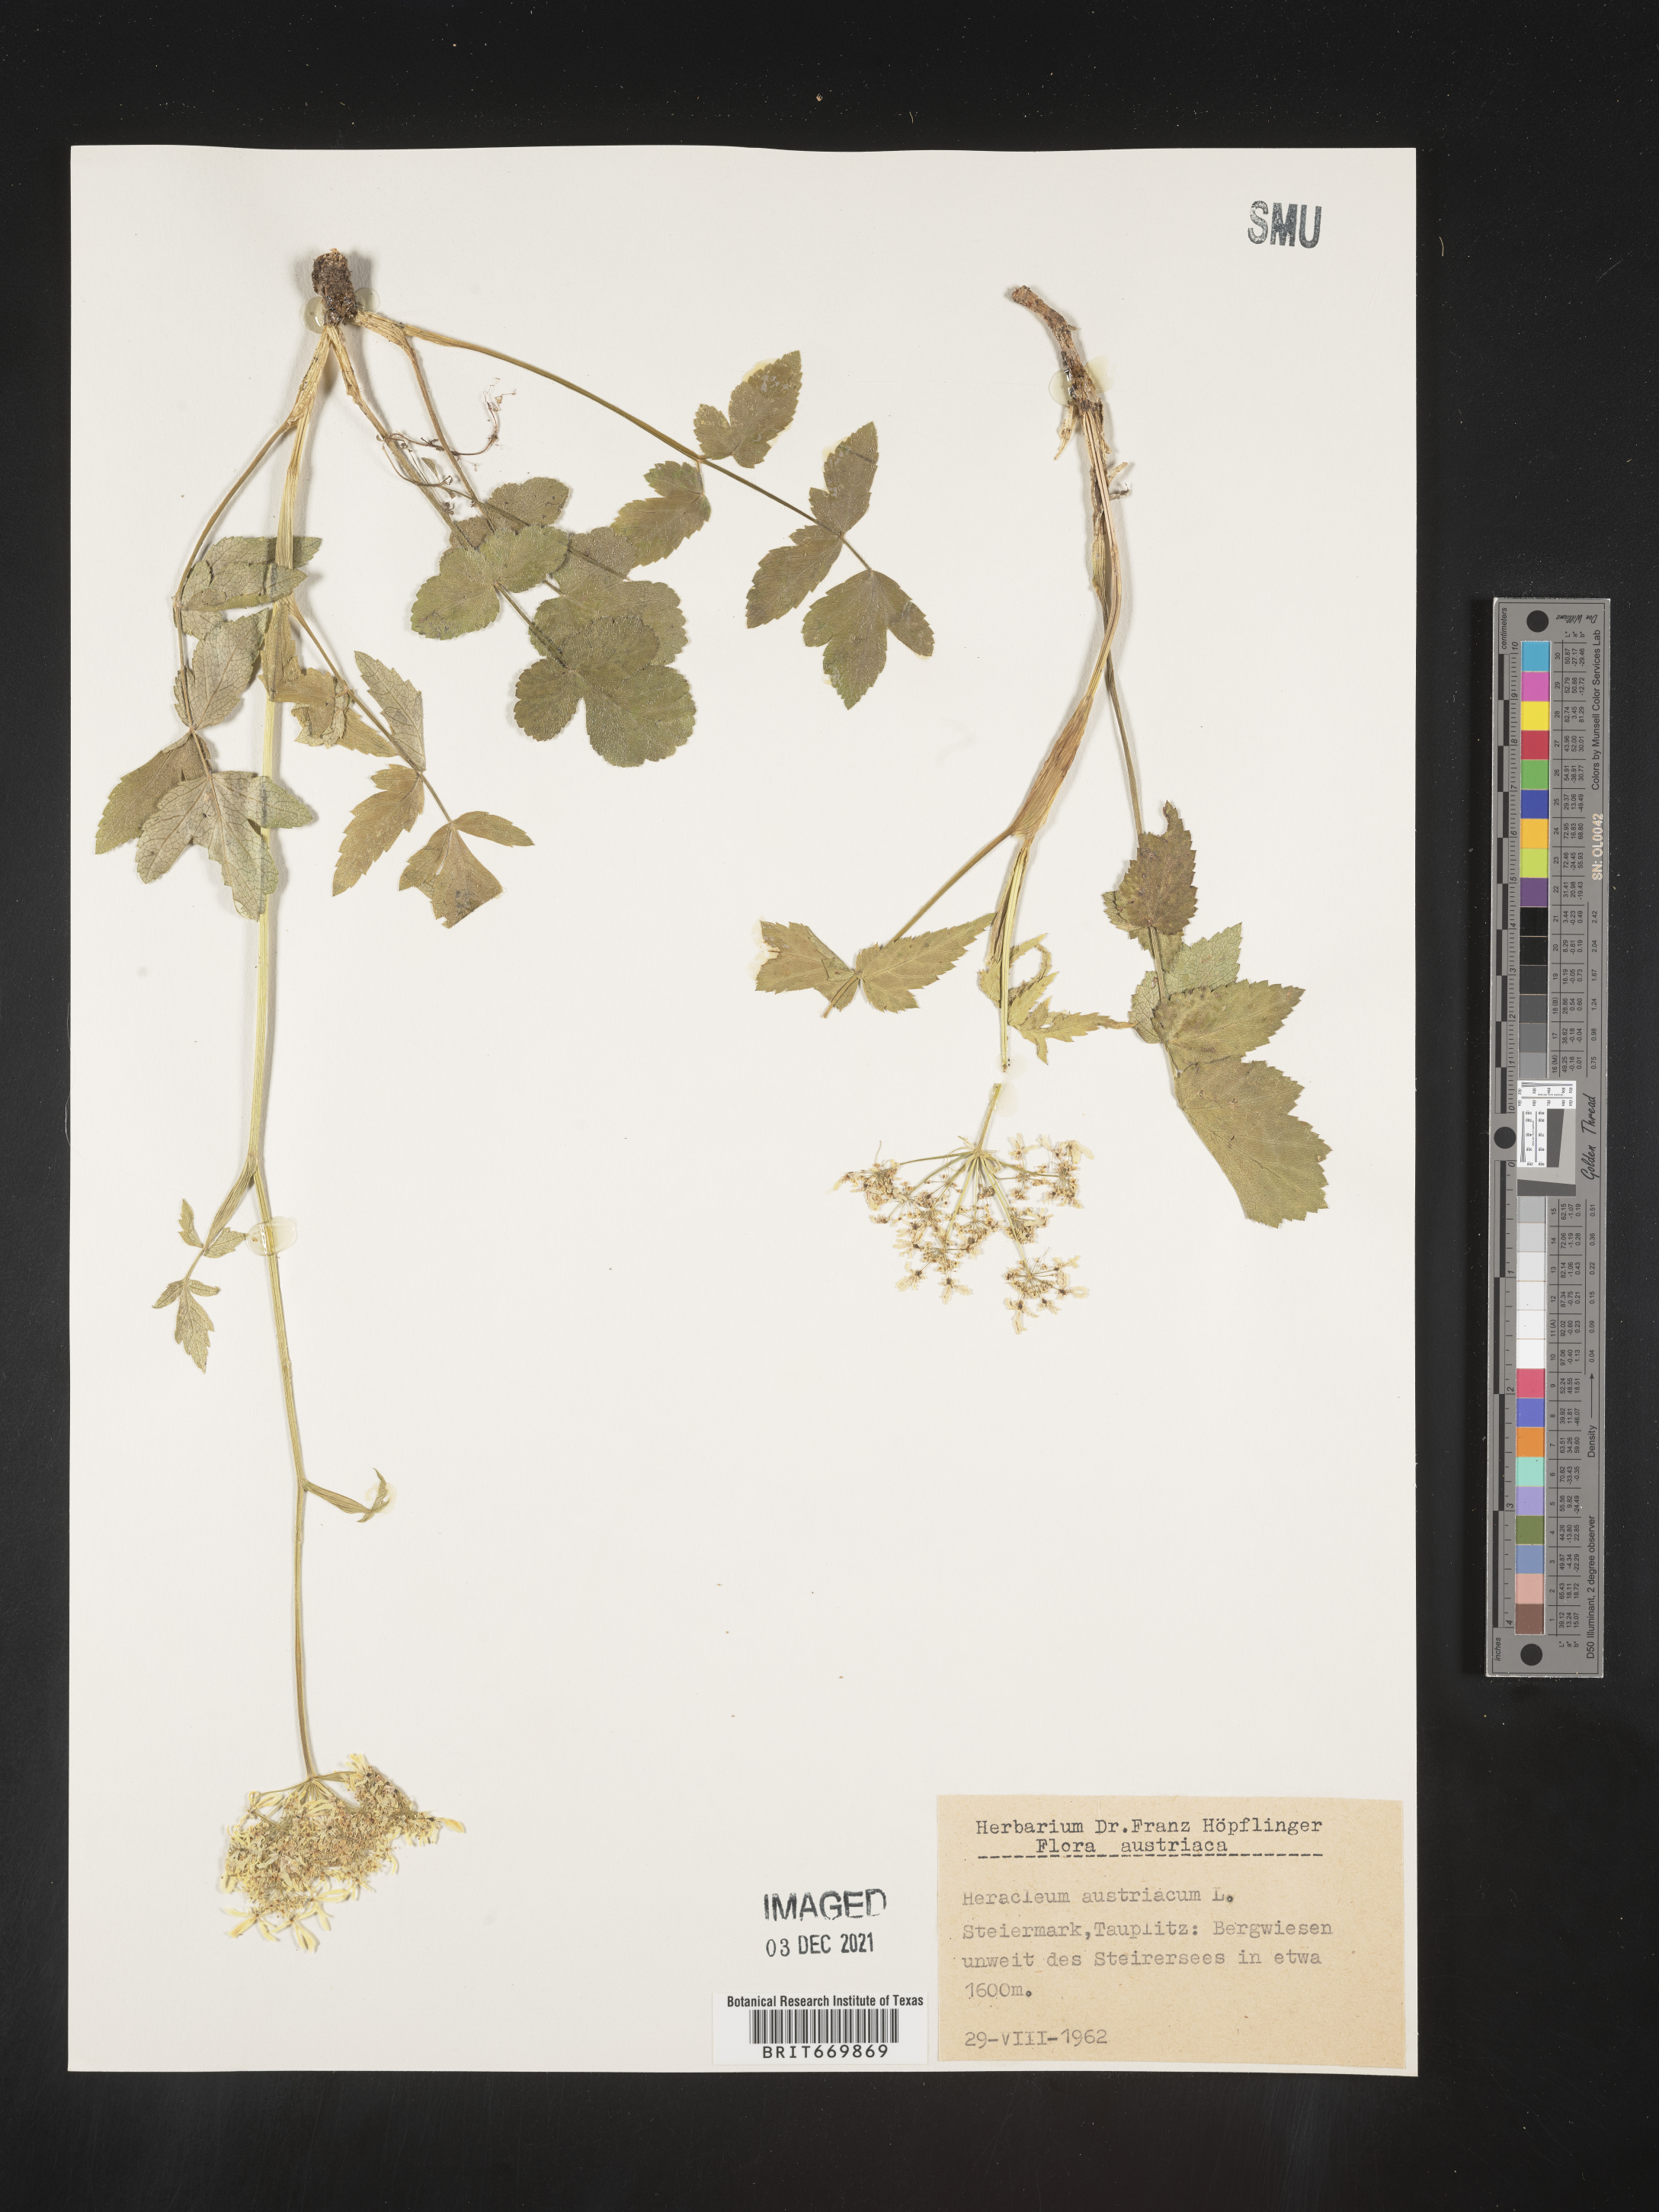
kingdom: Plantae
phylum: Tracheophyta
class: Magnoliopsida
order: Apiales
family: Apiaceae
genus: Hacquetia
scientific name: Hacquetia
